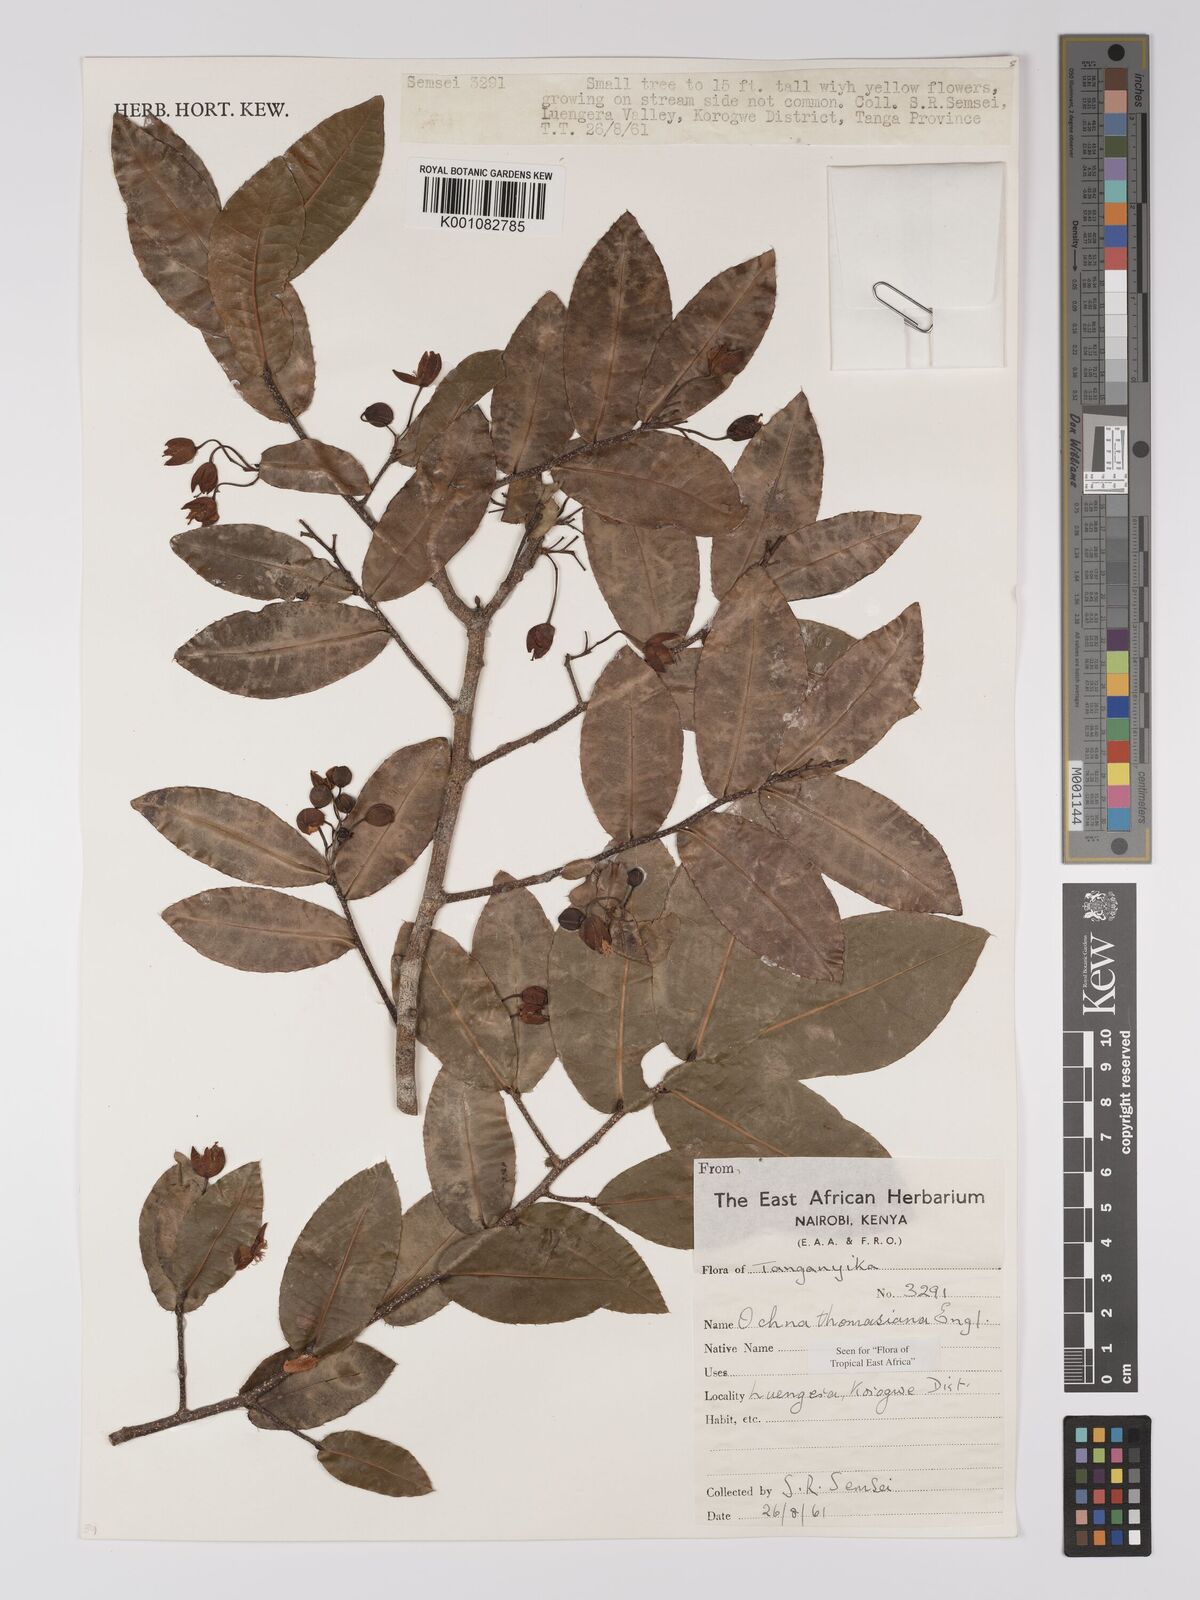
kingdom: Plantae
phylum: Tracheophyta
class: Magnoliopsida
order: Malpighiales
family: Ochnaceae
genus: Ochna
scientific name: Ochna thomasiana
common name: Thomas' bird's-eye bush
